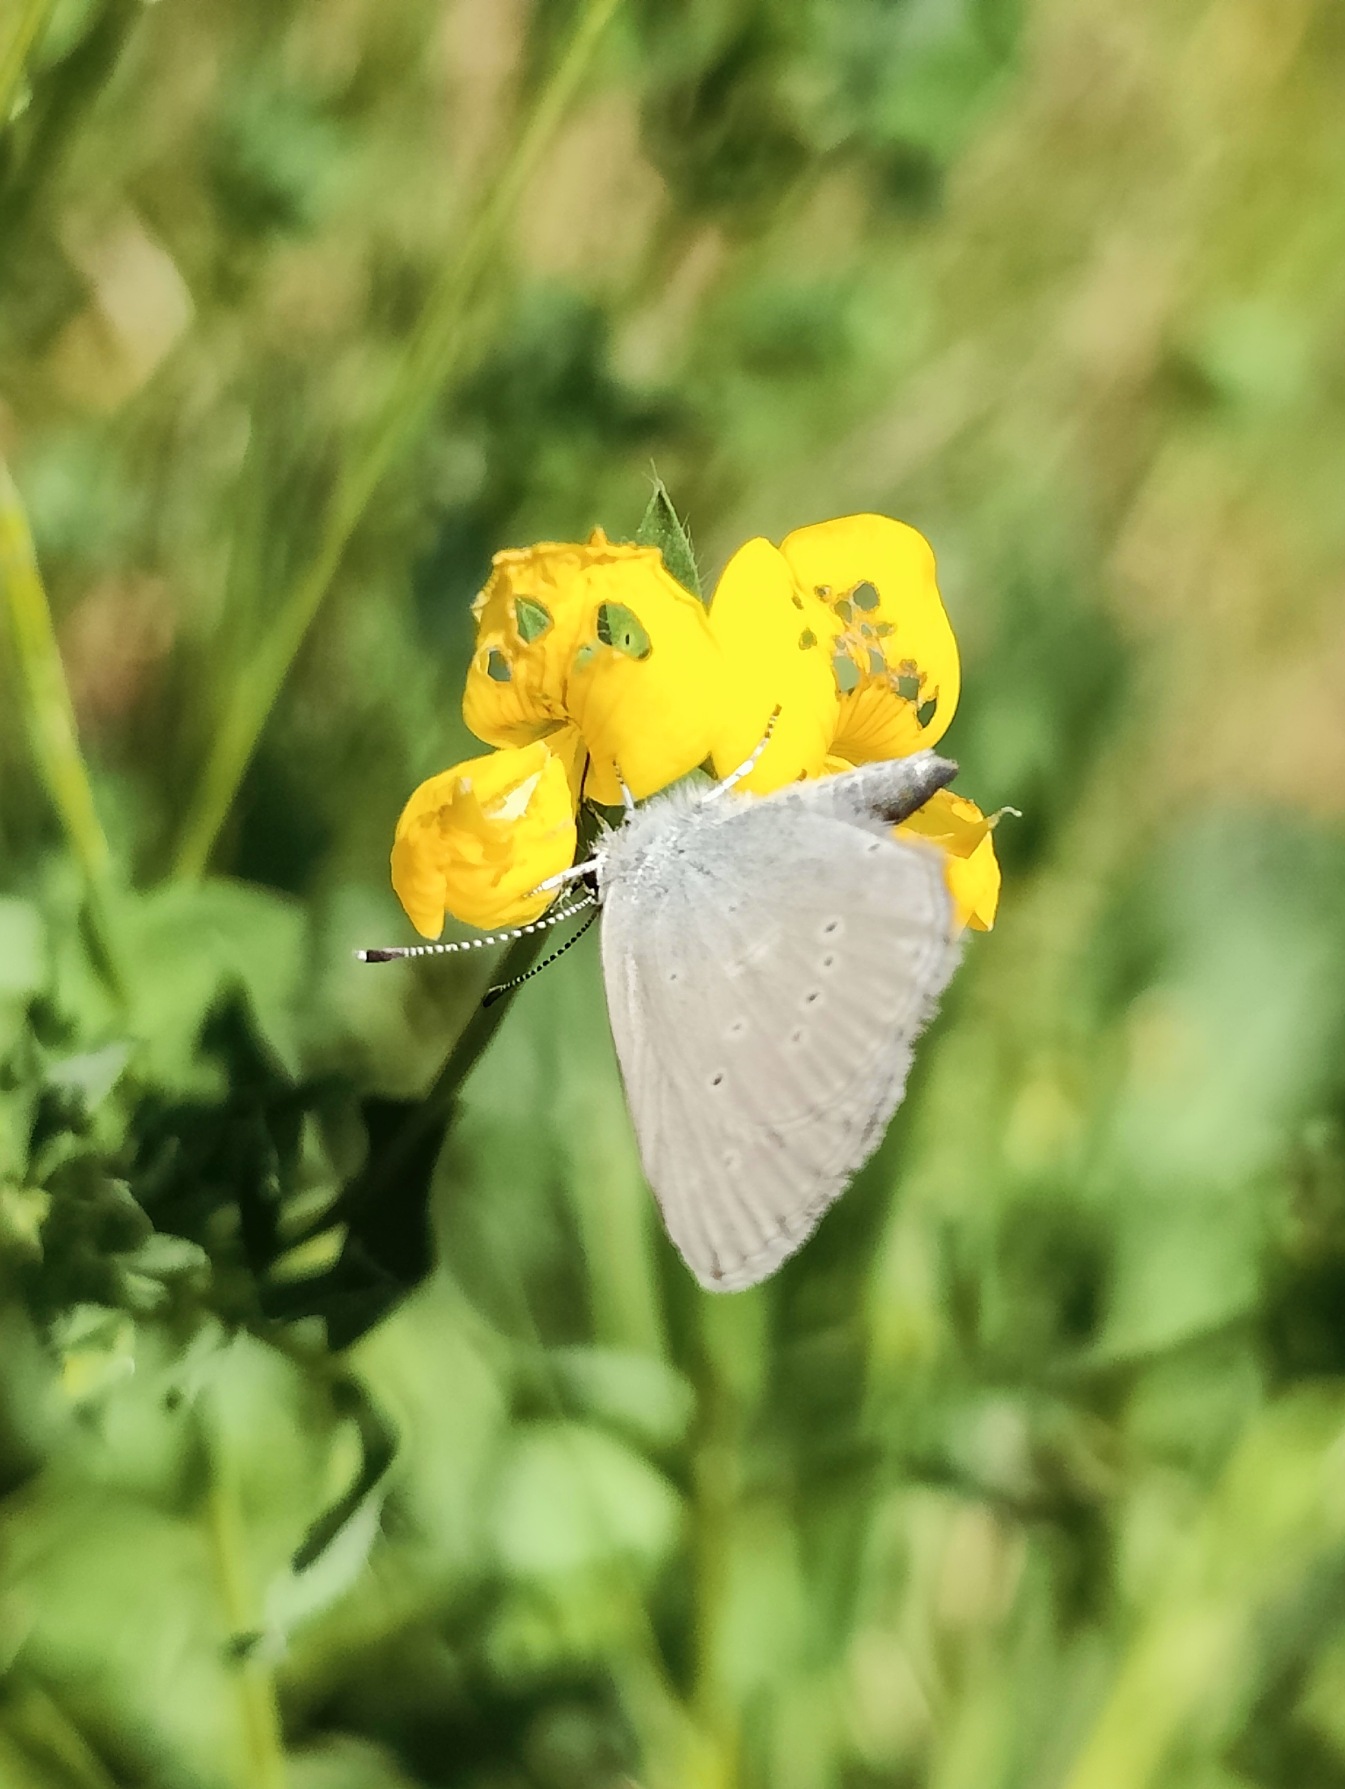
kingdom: Animalia
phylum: Arthropoda
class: Insecta
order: Lepidoptera
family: Lycaenidae
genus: Cupido
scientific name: Cupido minimus
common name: Dværgblåfugl
